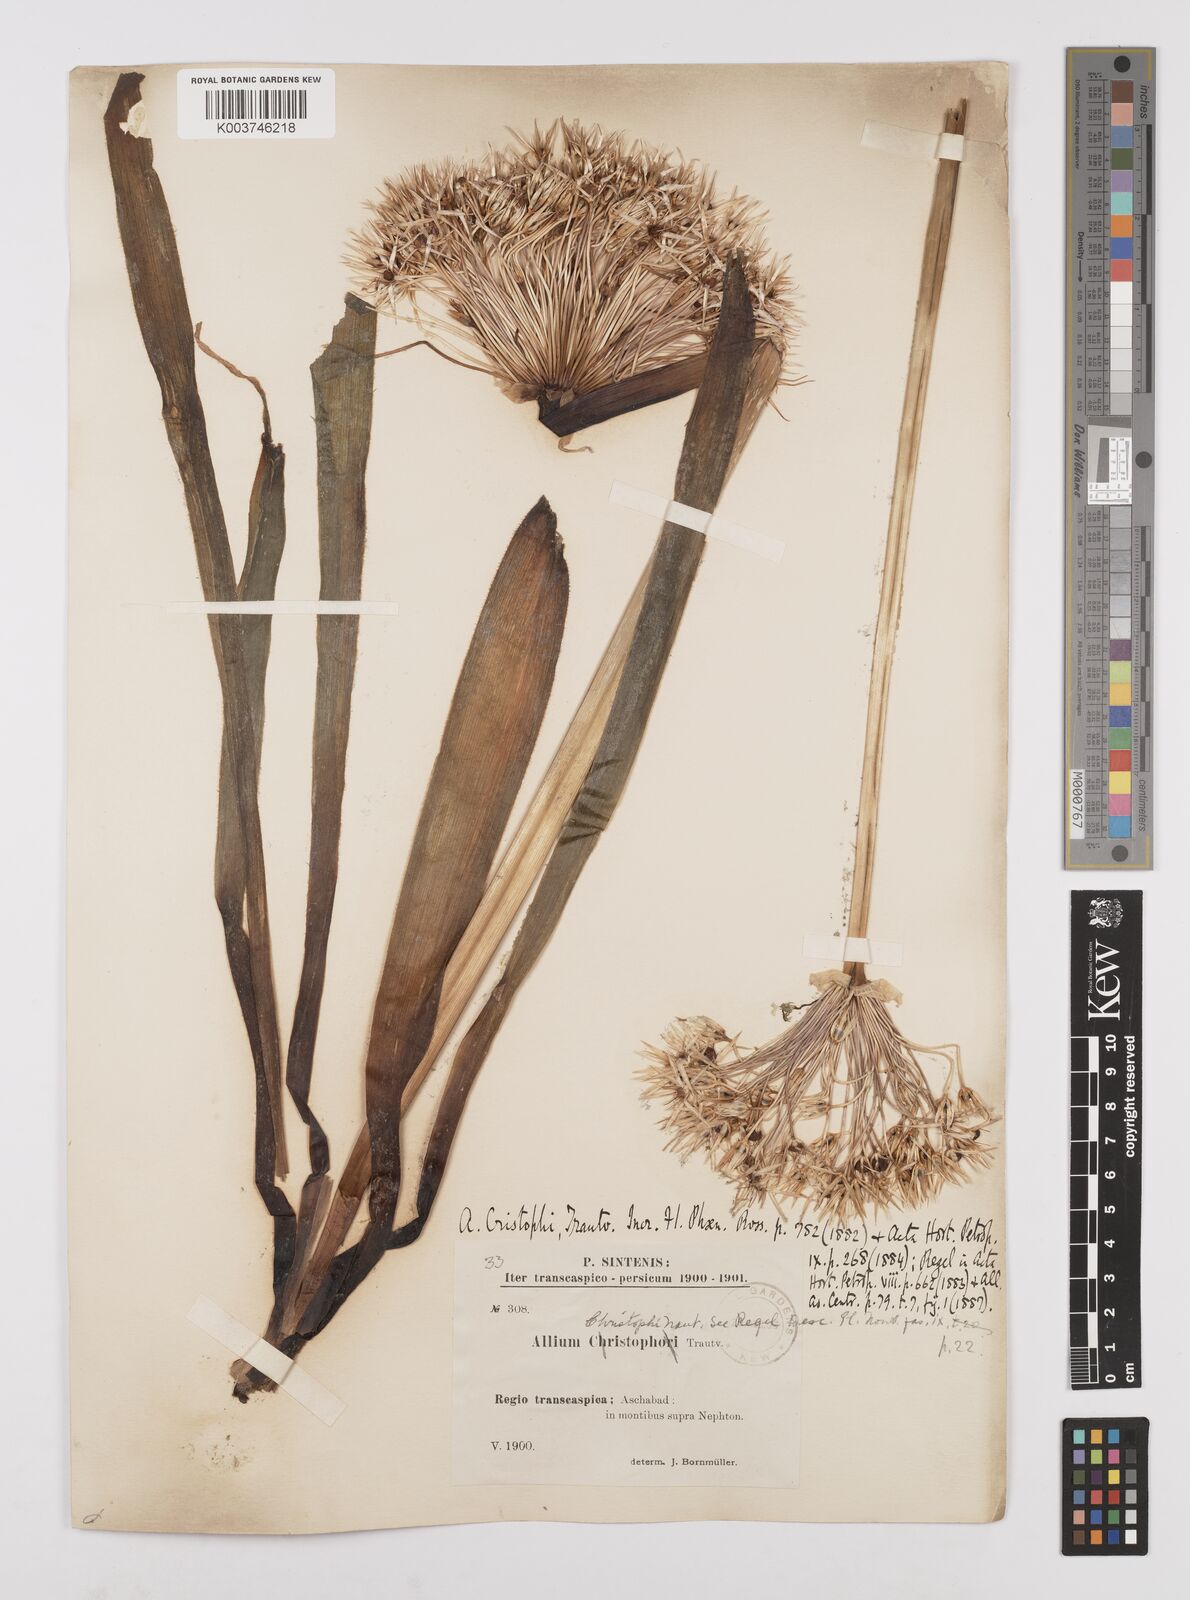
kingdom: Plantae
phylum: Tracheophyta
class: Liliopsida
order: Asparagales
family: Amaryllidaceae
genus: Allium
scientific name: Allium cristophii
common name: Persian onion
